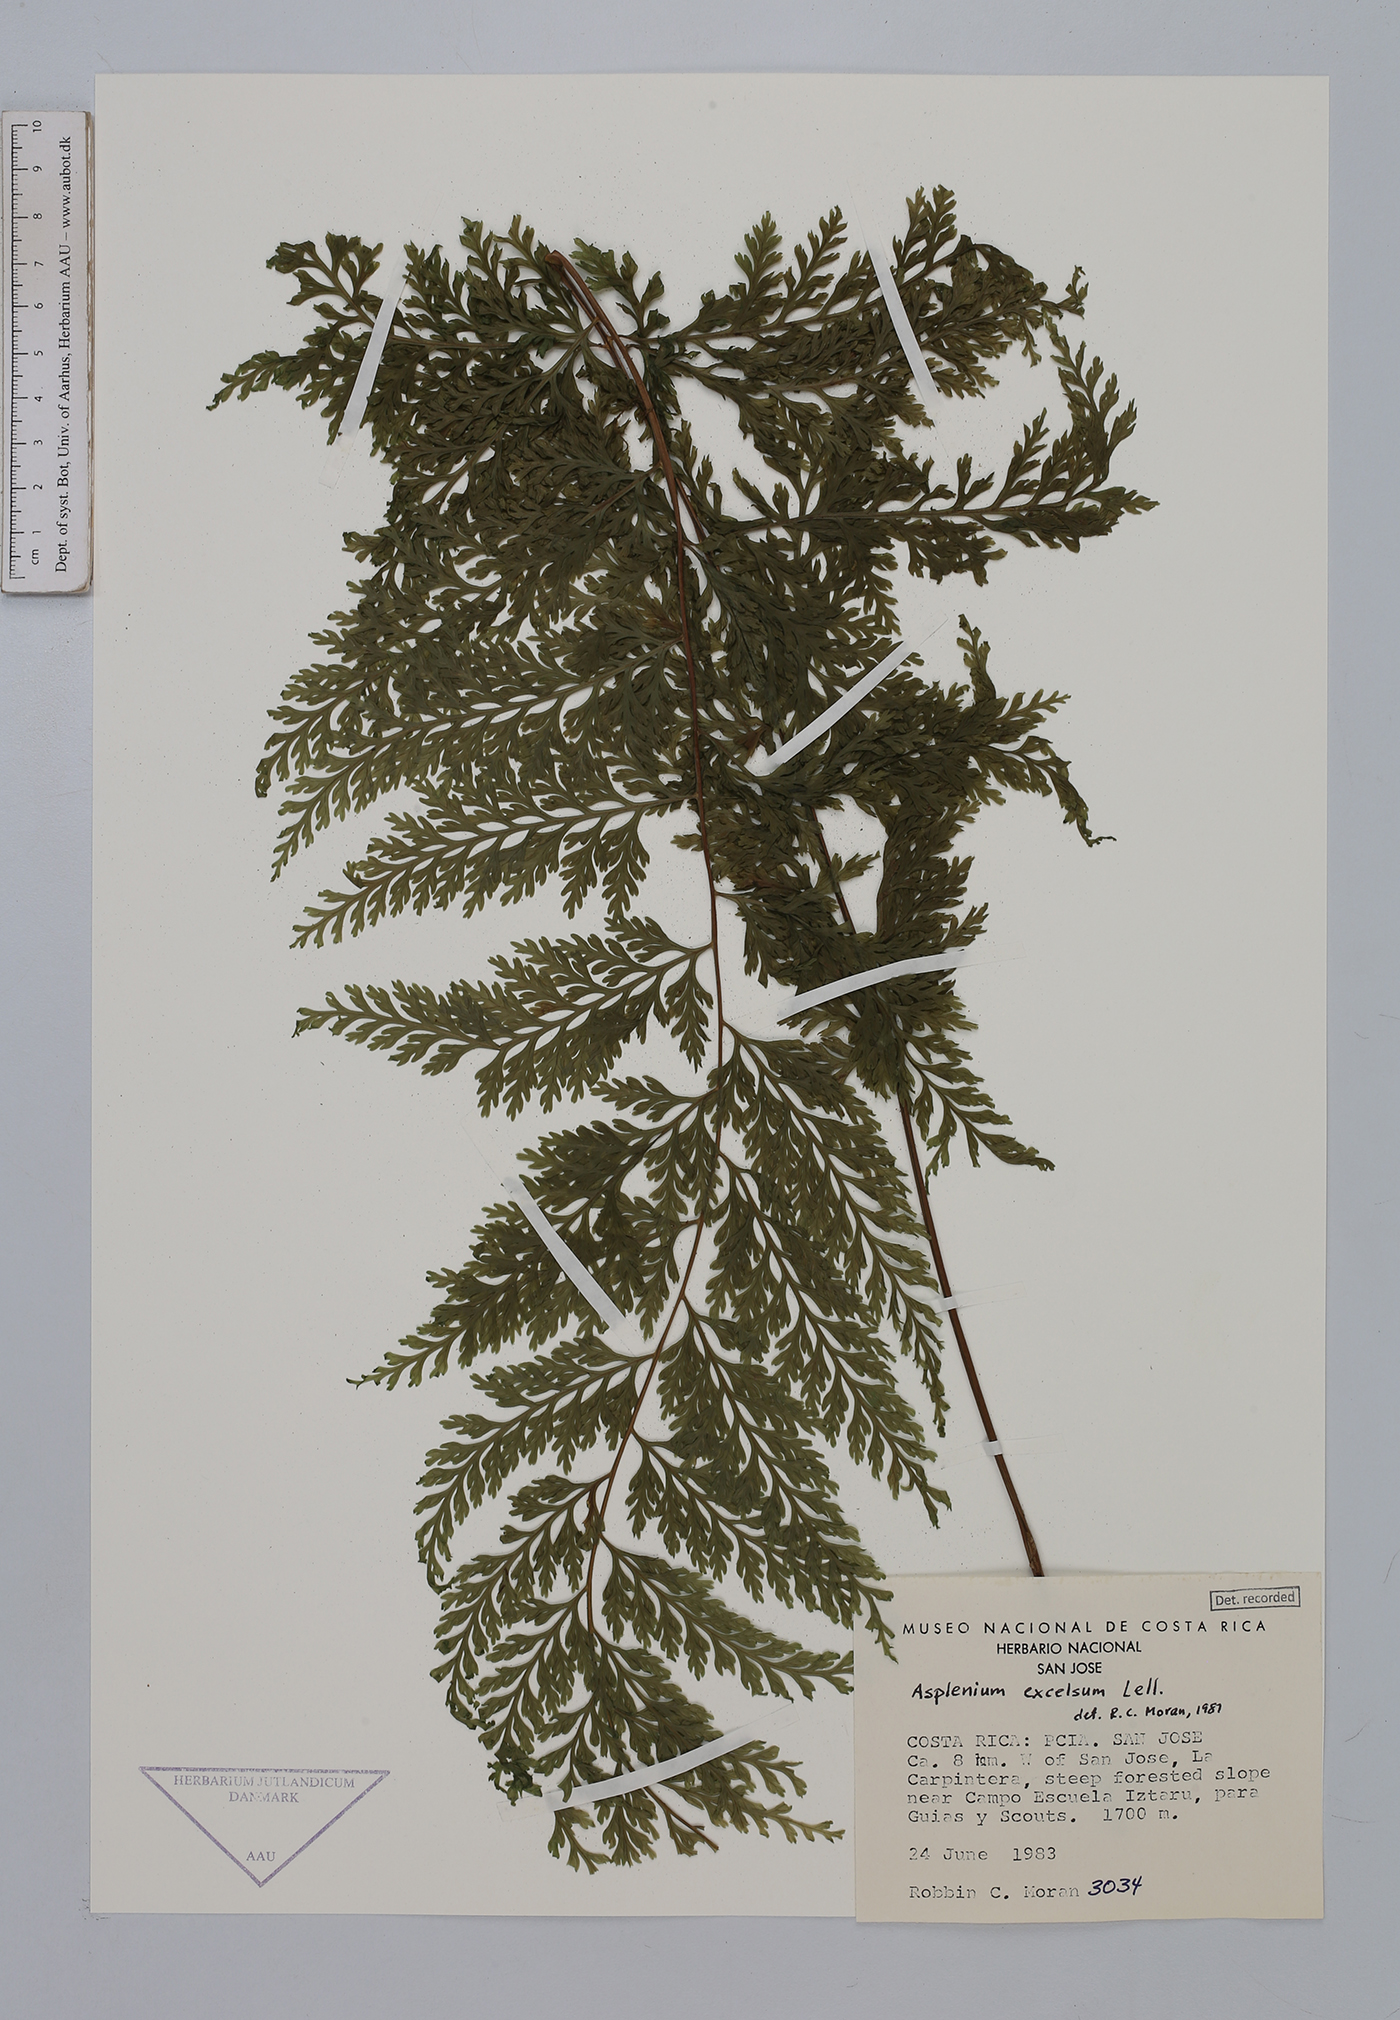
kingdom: Plantae
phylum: Tracheophyta
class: Polypodiopsida
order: Polypodiales
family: Aspleniaceae
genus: Asplenium
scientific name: Asplenium excelsum
